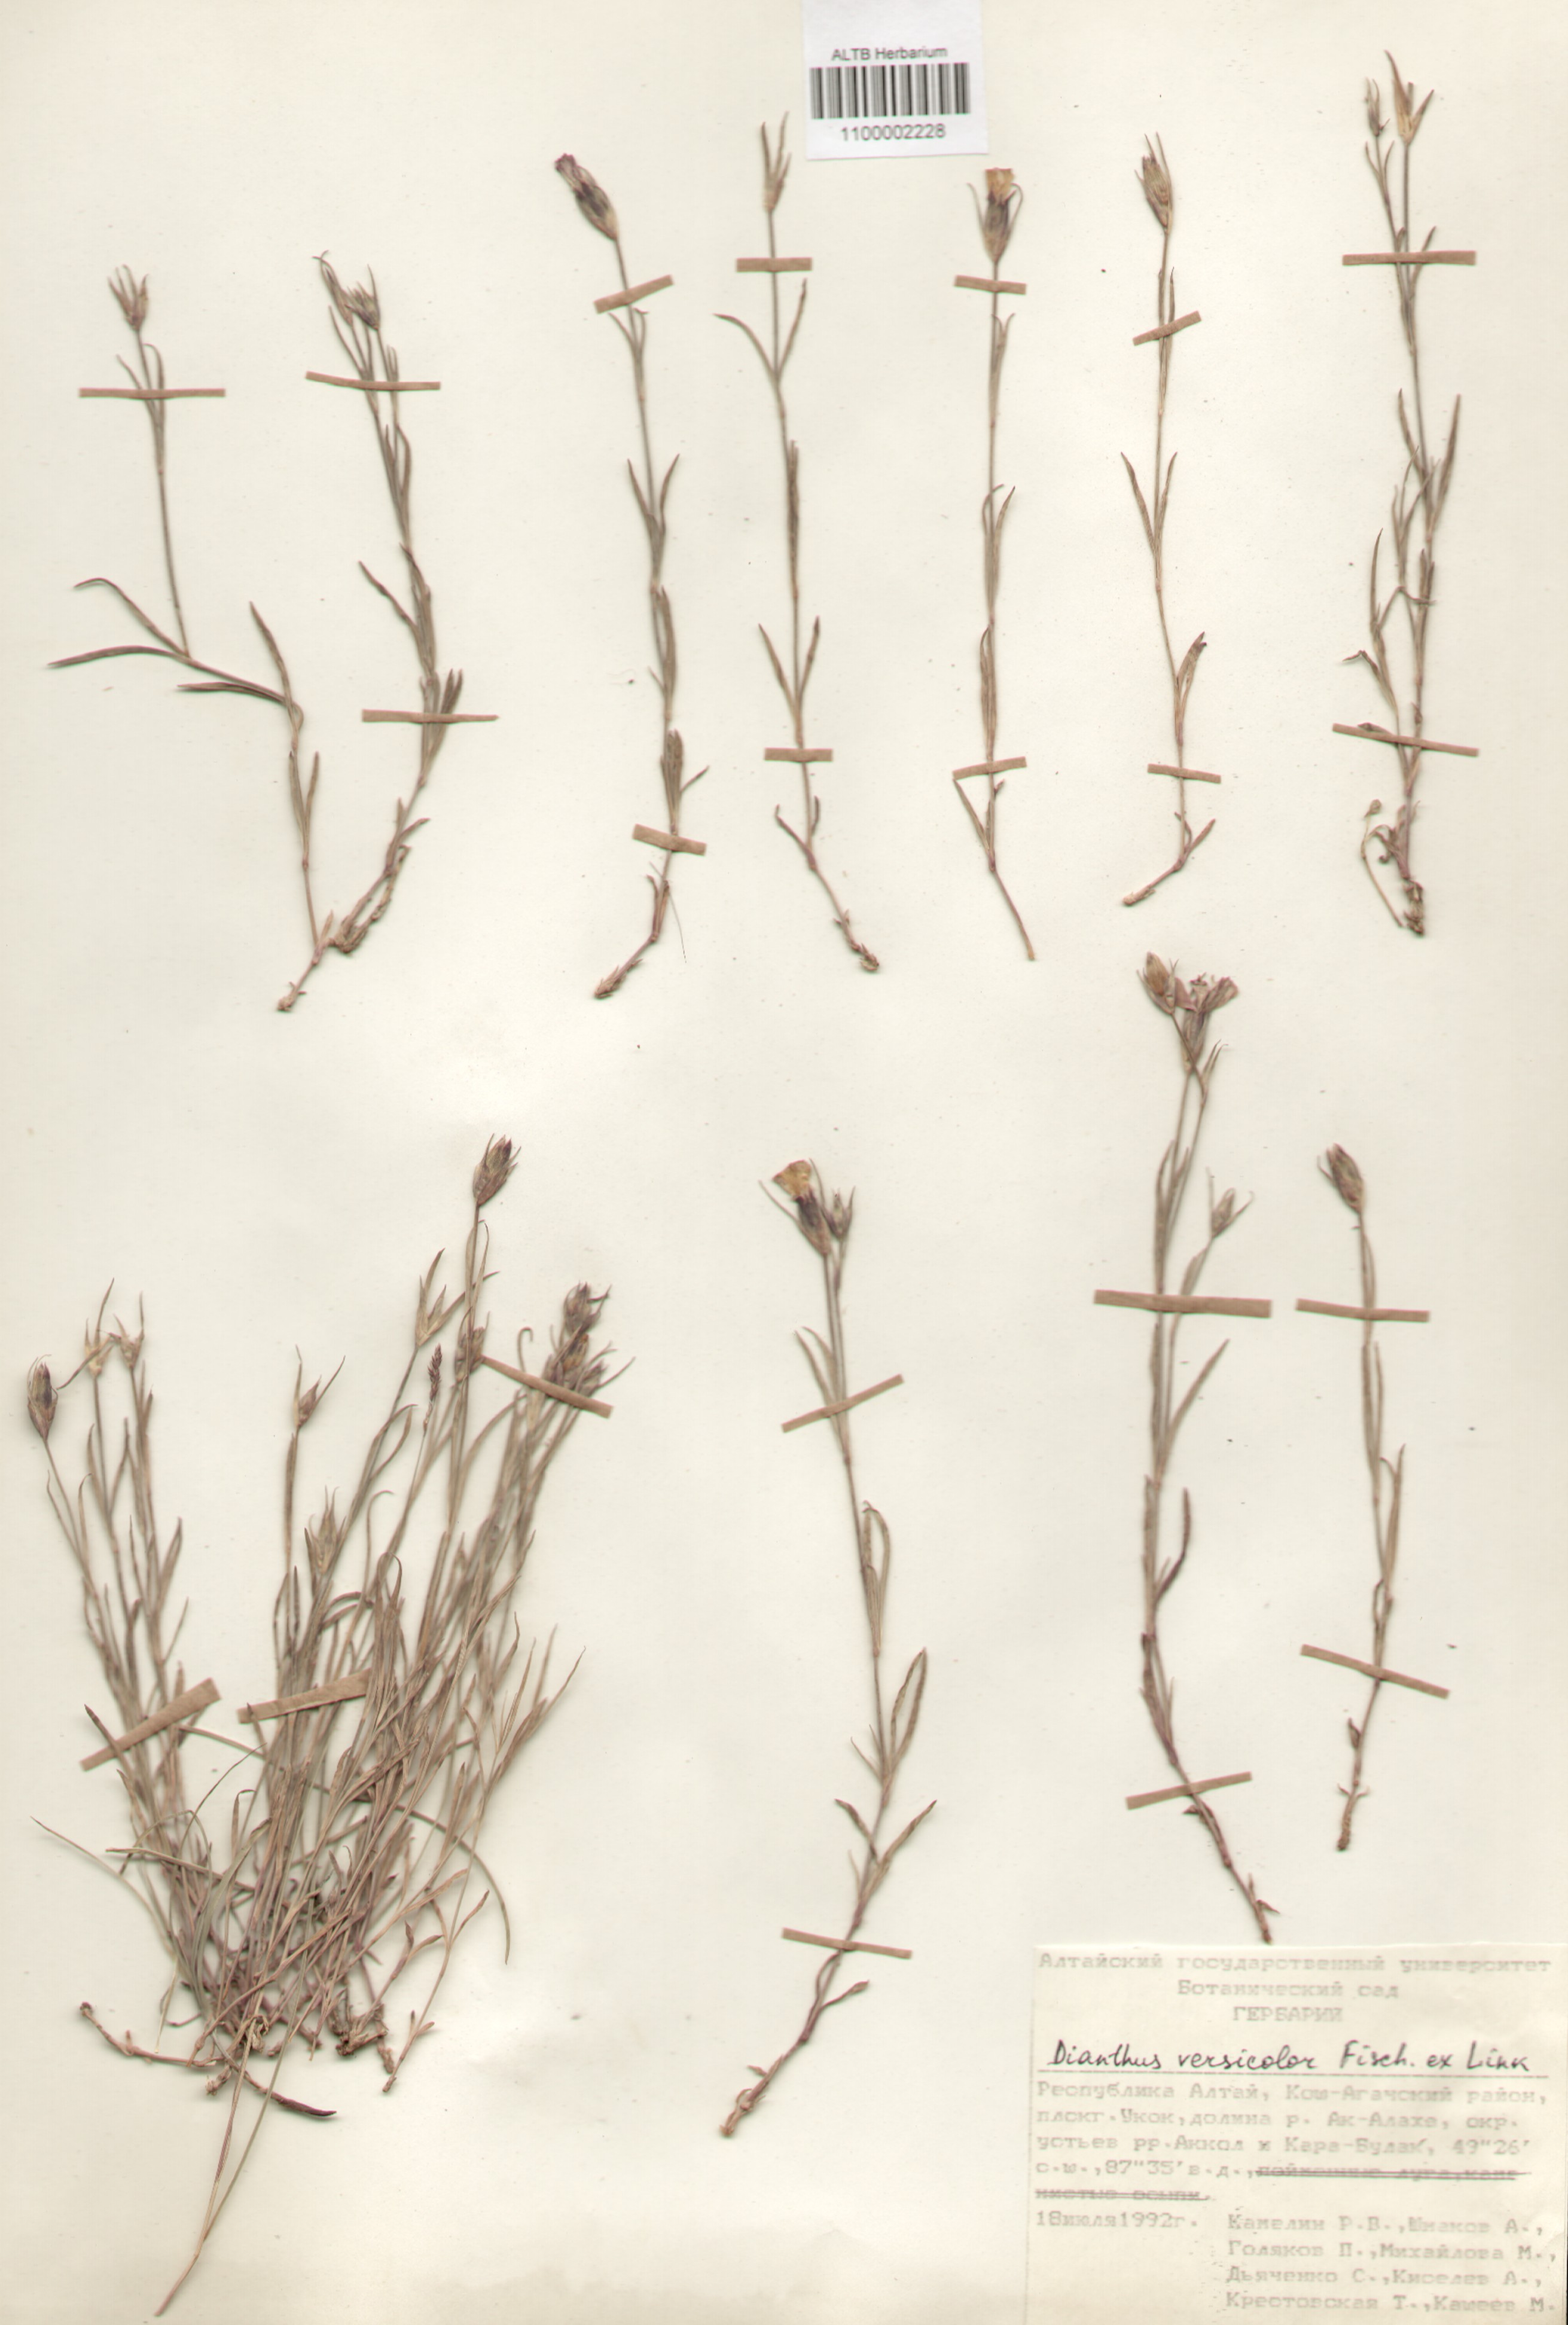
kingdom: Plantae
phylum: Tracheophyta
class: Magnoliopsida
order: Caryophyllales
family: Caryophyllaceae
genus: Dianthus
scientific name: Dianthus chinensis
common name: Rainbow pink
